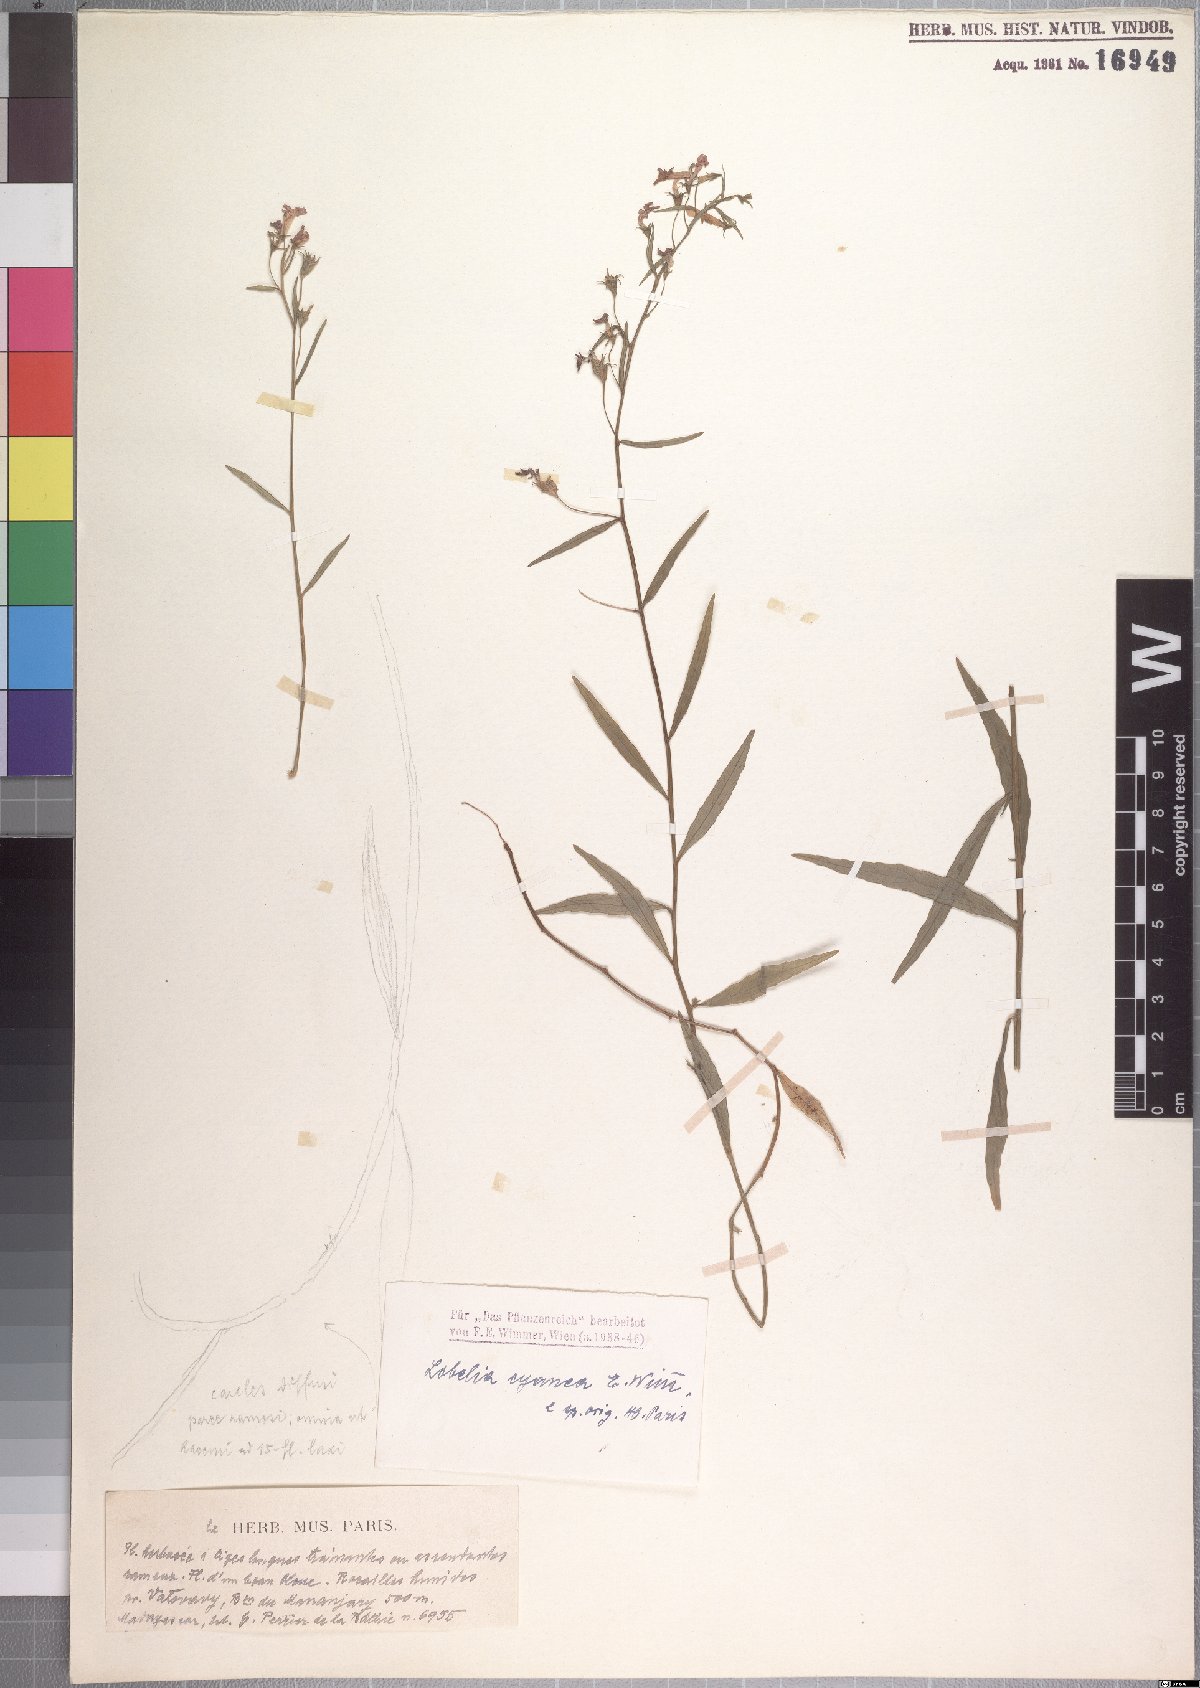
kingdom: Plantae
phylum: Tracheophyta
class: Magnoliopsida
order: Asterales
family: Campanulaceae
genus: Lobelia
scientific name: Lobelia cyanea
